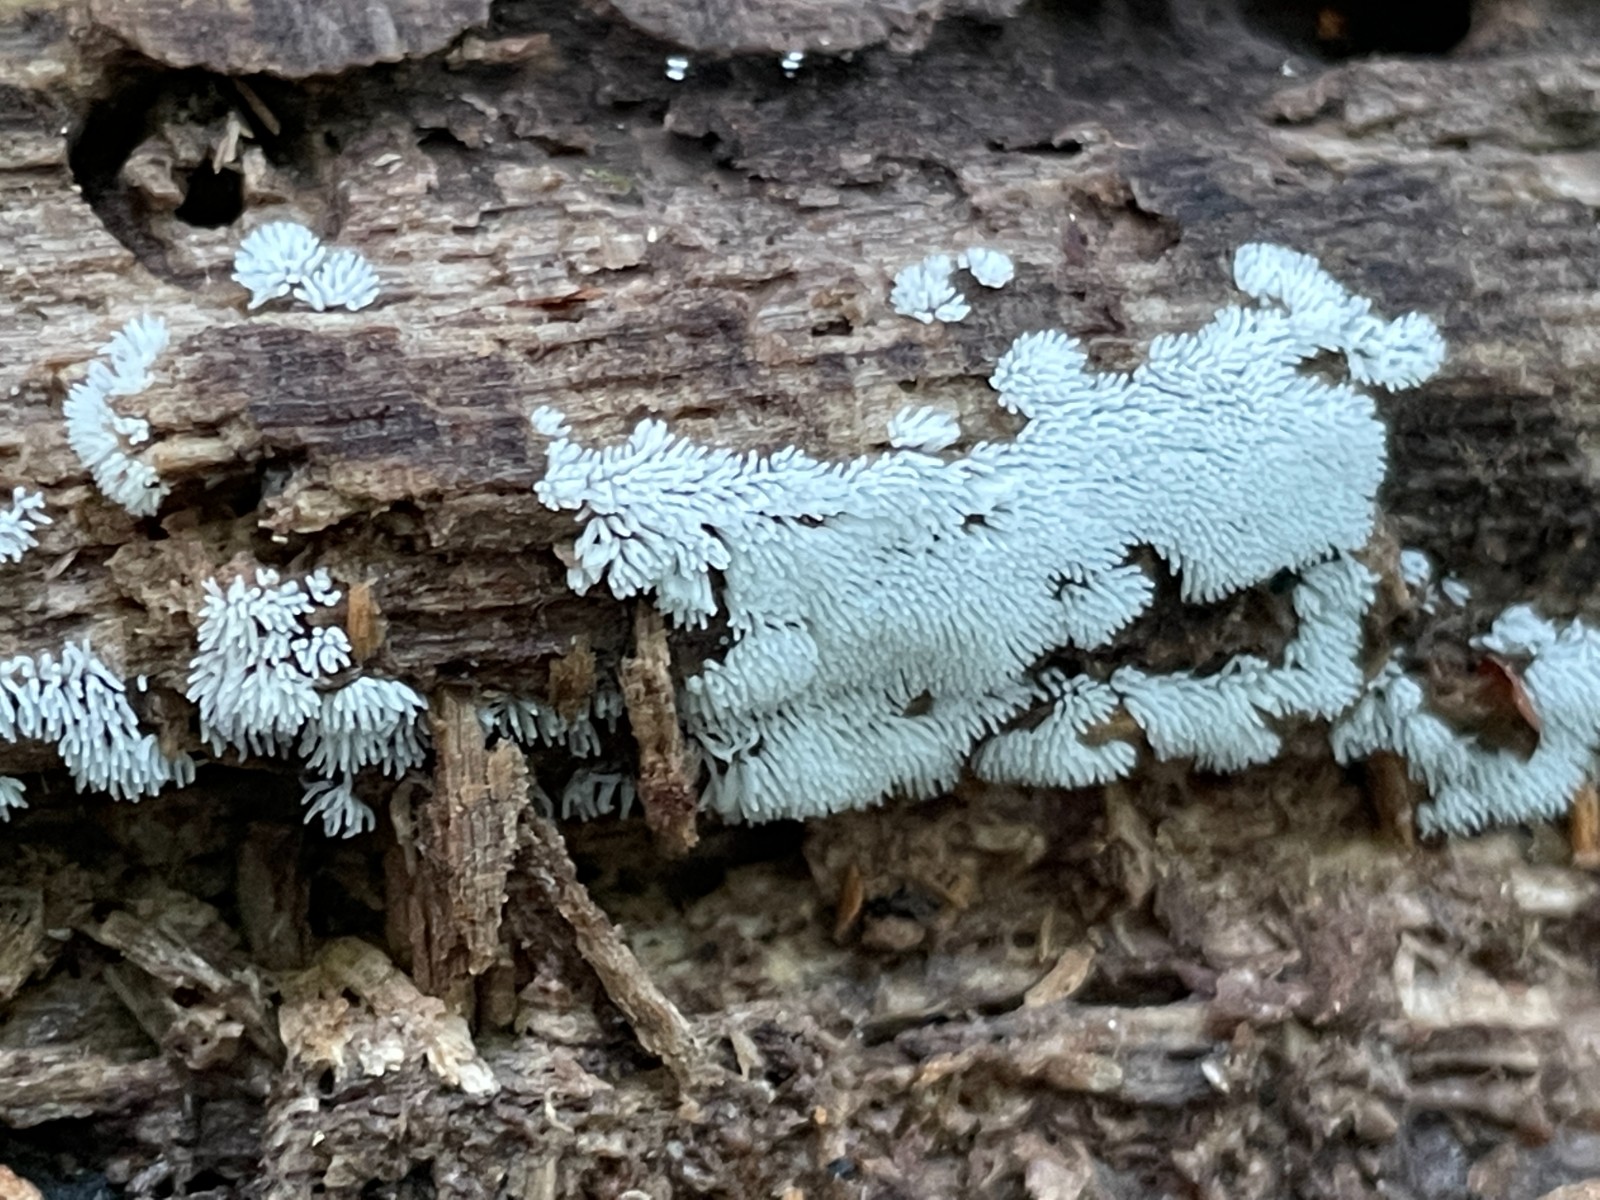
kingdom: Protozoa
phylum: Mycetozoa
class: Protosteliomycetes
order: Ceratiomyxales
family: Ceratiomyxaceae
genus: Ceratiomyxa
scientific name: Ceratiomyxa fruticulosa
